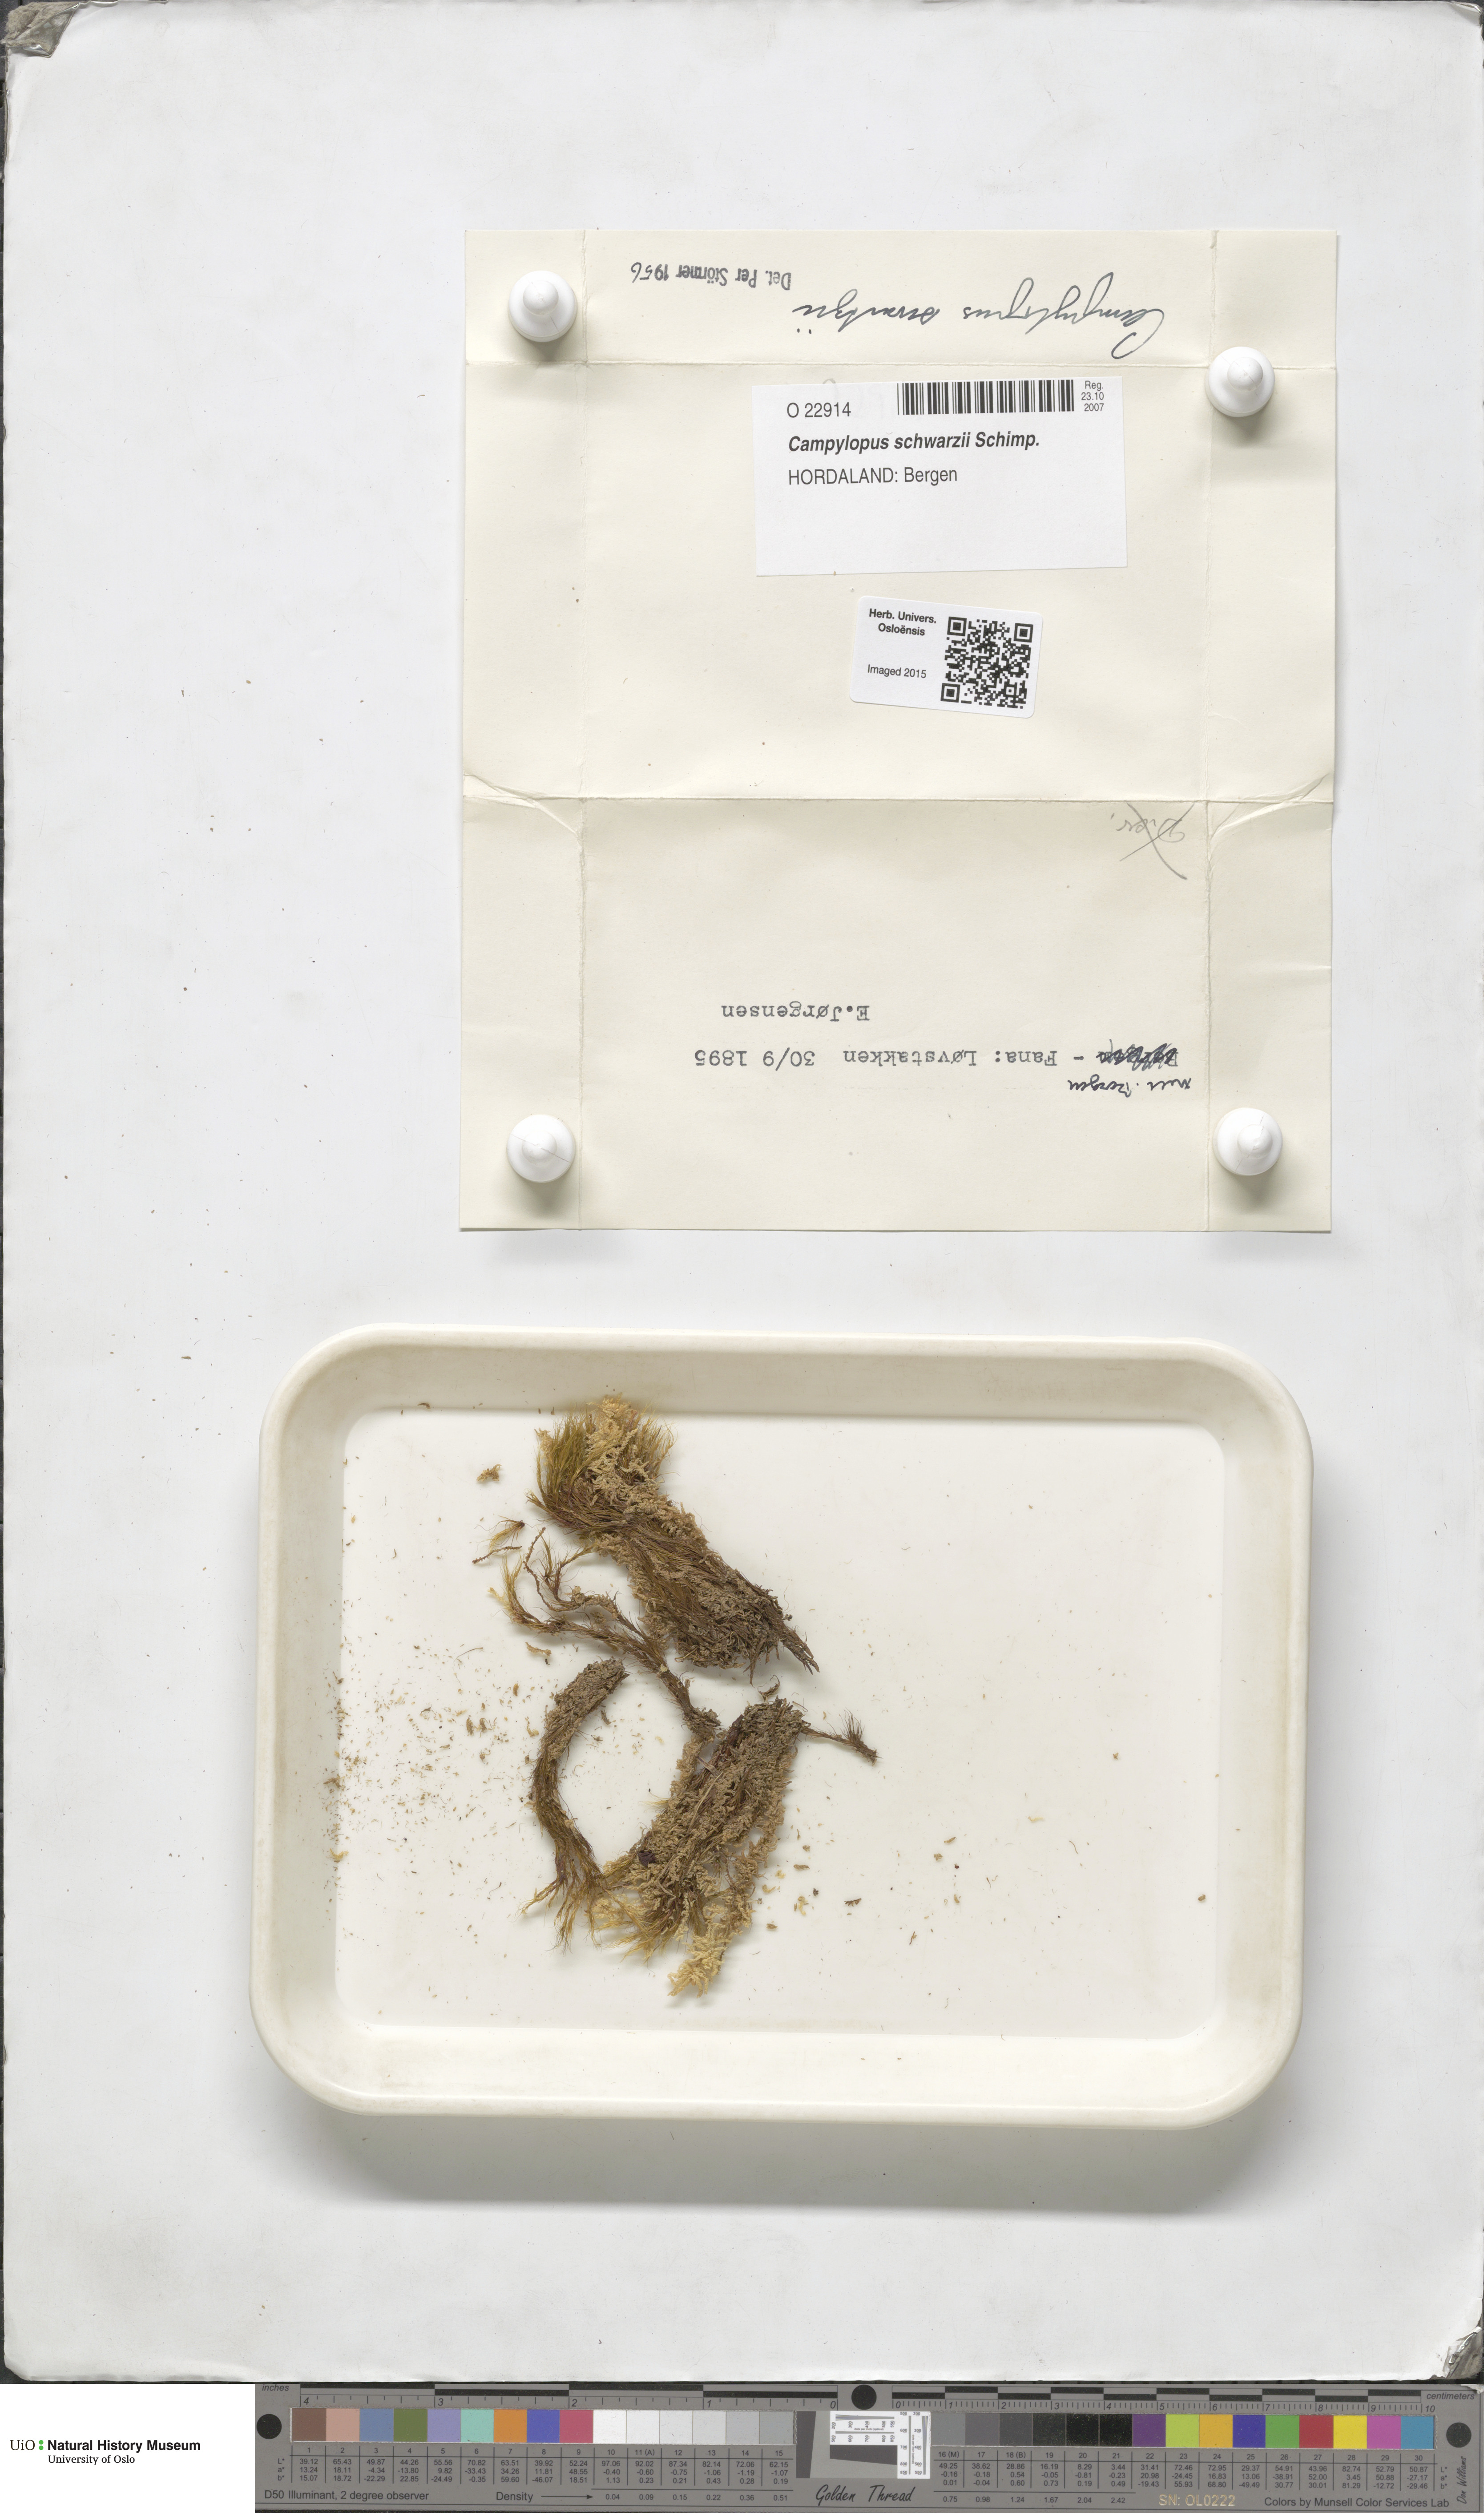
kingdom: Plantae
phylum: Bryophyta
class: Bryopsida
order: Dicranales
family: Leucobryaceae
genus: Campylopus
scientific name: Campylopus gracilis
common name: Schwarz's swan-neck moss
